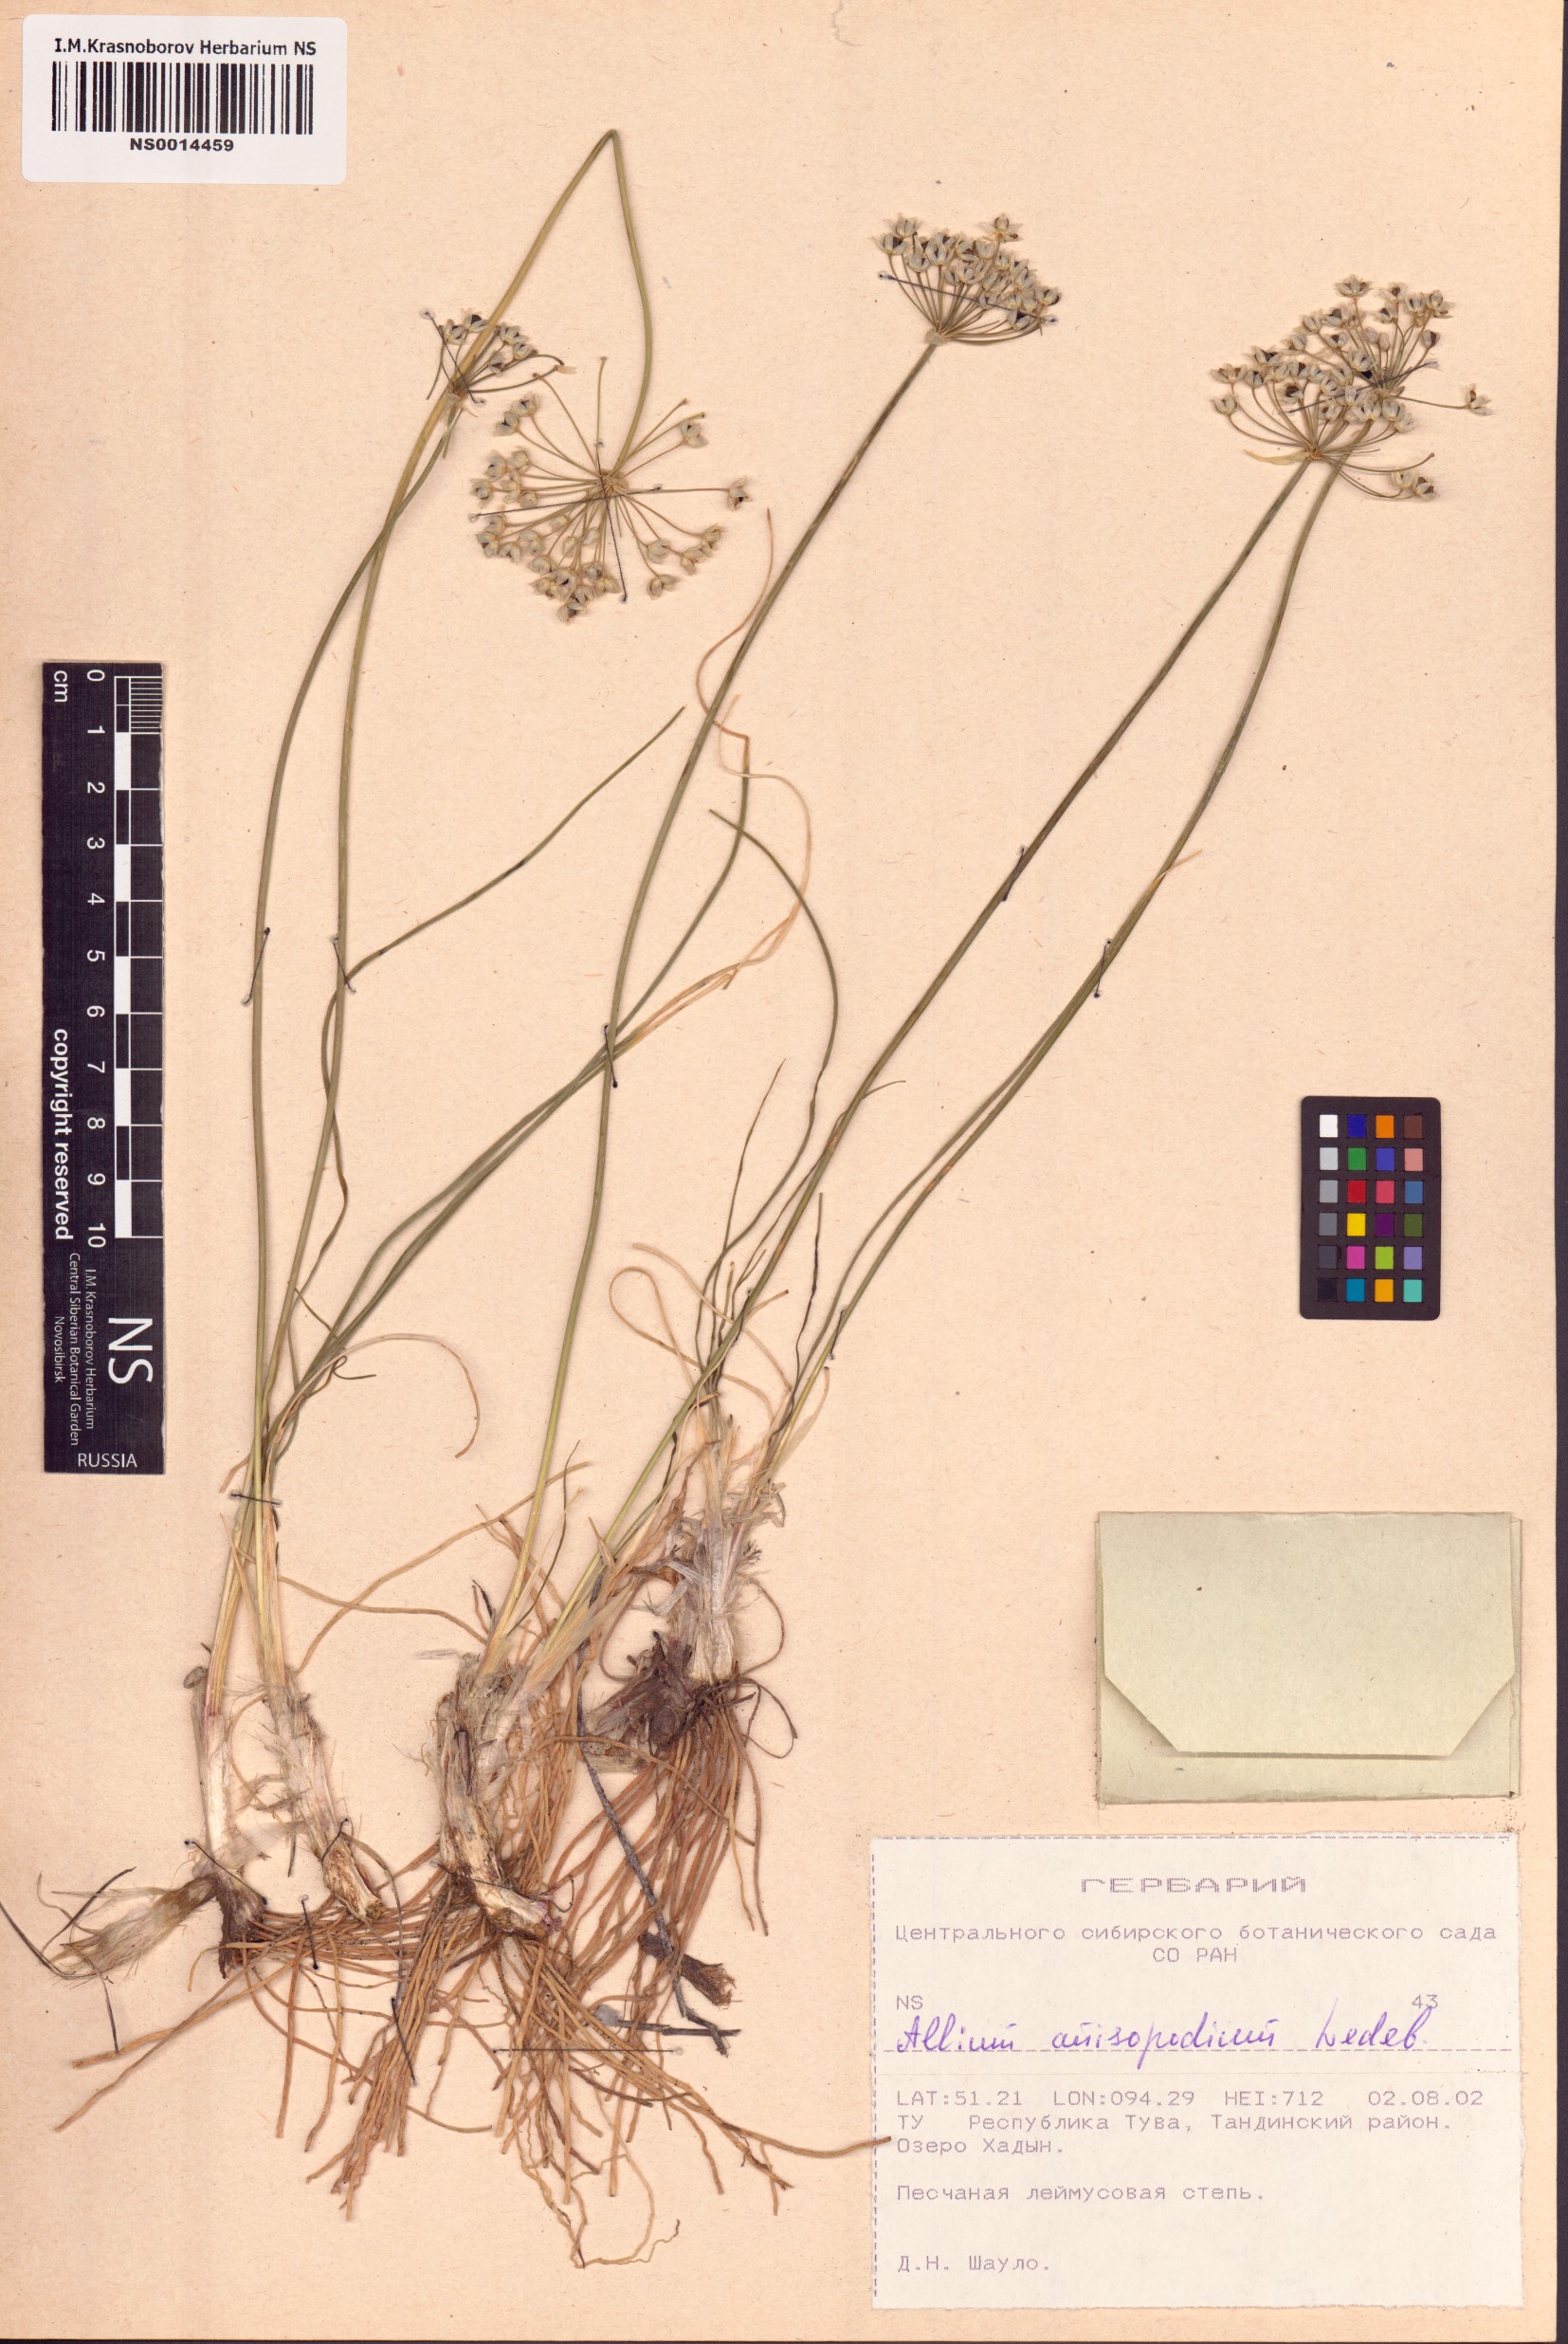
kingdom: Plantae
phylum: Tracheophyta
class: Liliopsida
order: Asparagales
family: Amaryllidaceae
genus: Allium
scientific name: Allium anisopodium
